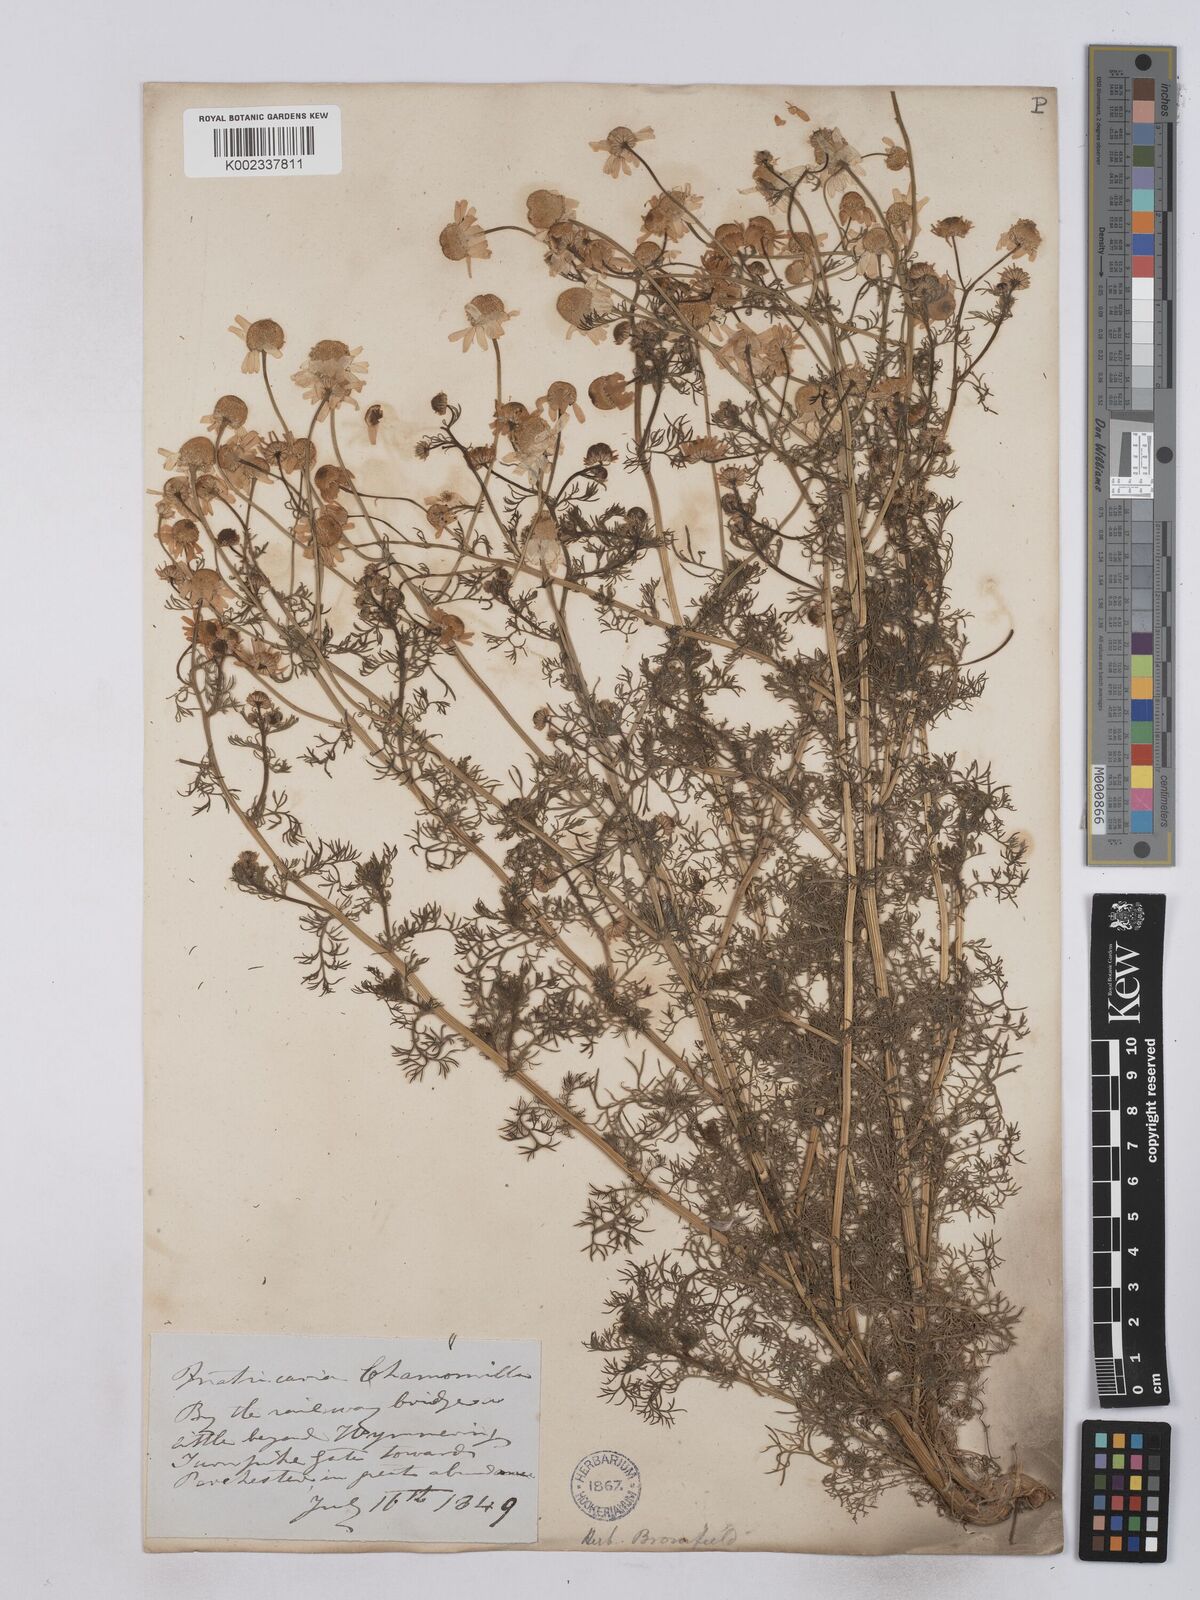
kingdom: Plantae
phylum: Tracheophyta
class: Magnoliopsida
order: Asterales
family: Asteraceae
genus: Matricaria
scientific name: Matricaria chamomilla
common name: Scented mayweed
